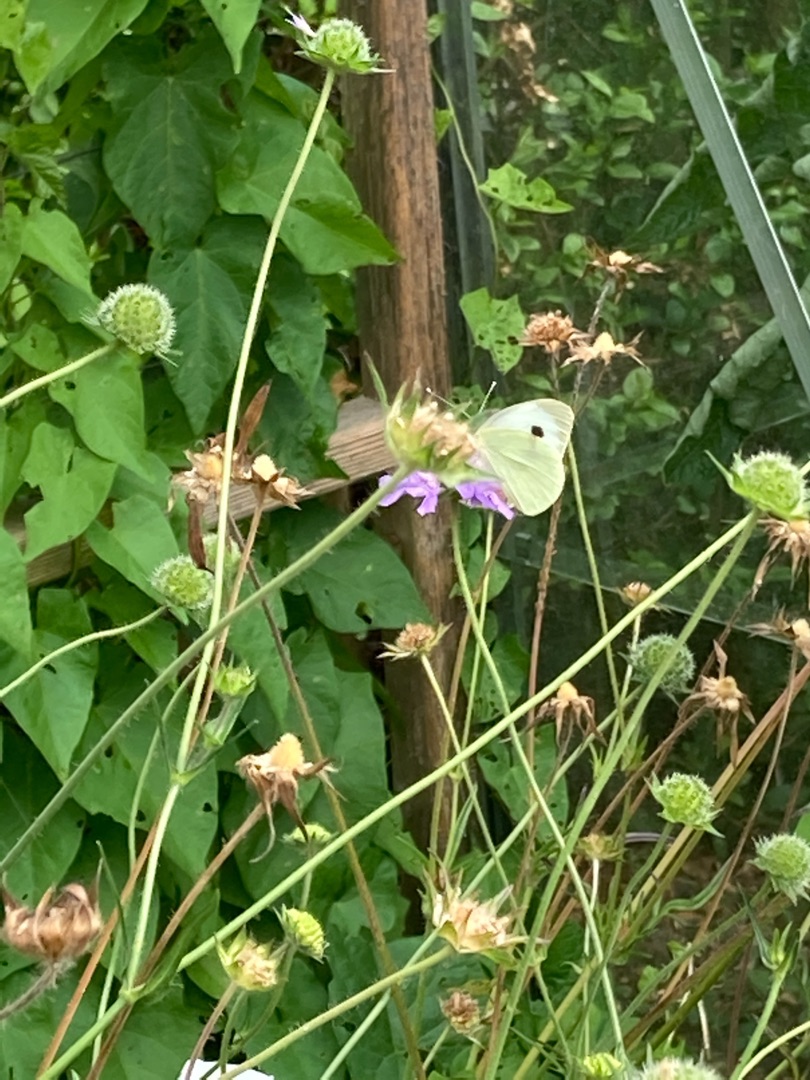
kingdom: Animalia
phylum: Arthropoda
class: Insecta
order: Lepidoptera
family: Pieridae
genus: Pieris
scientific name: Pieris brassicae
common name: Stor kålsommerfugl
